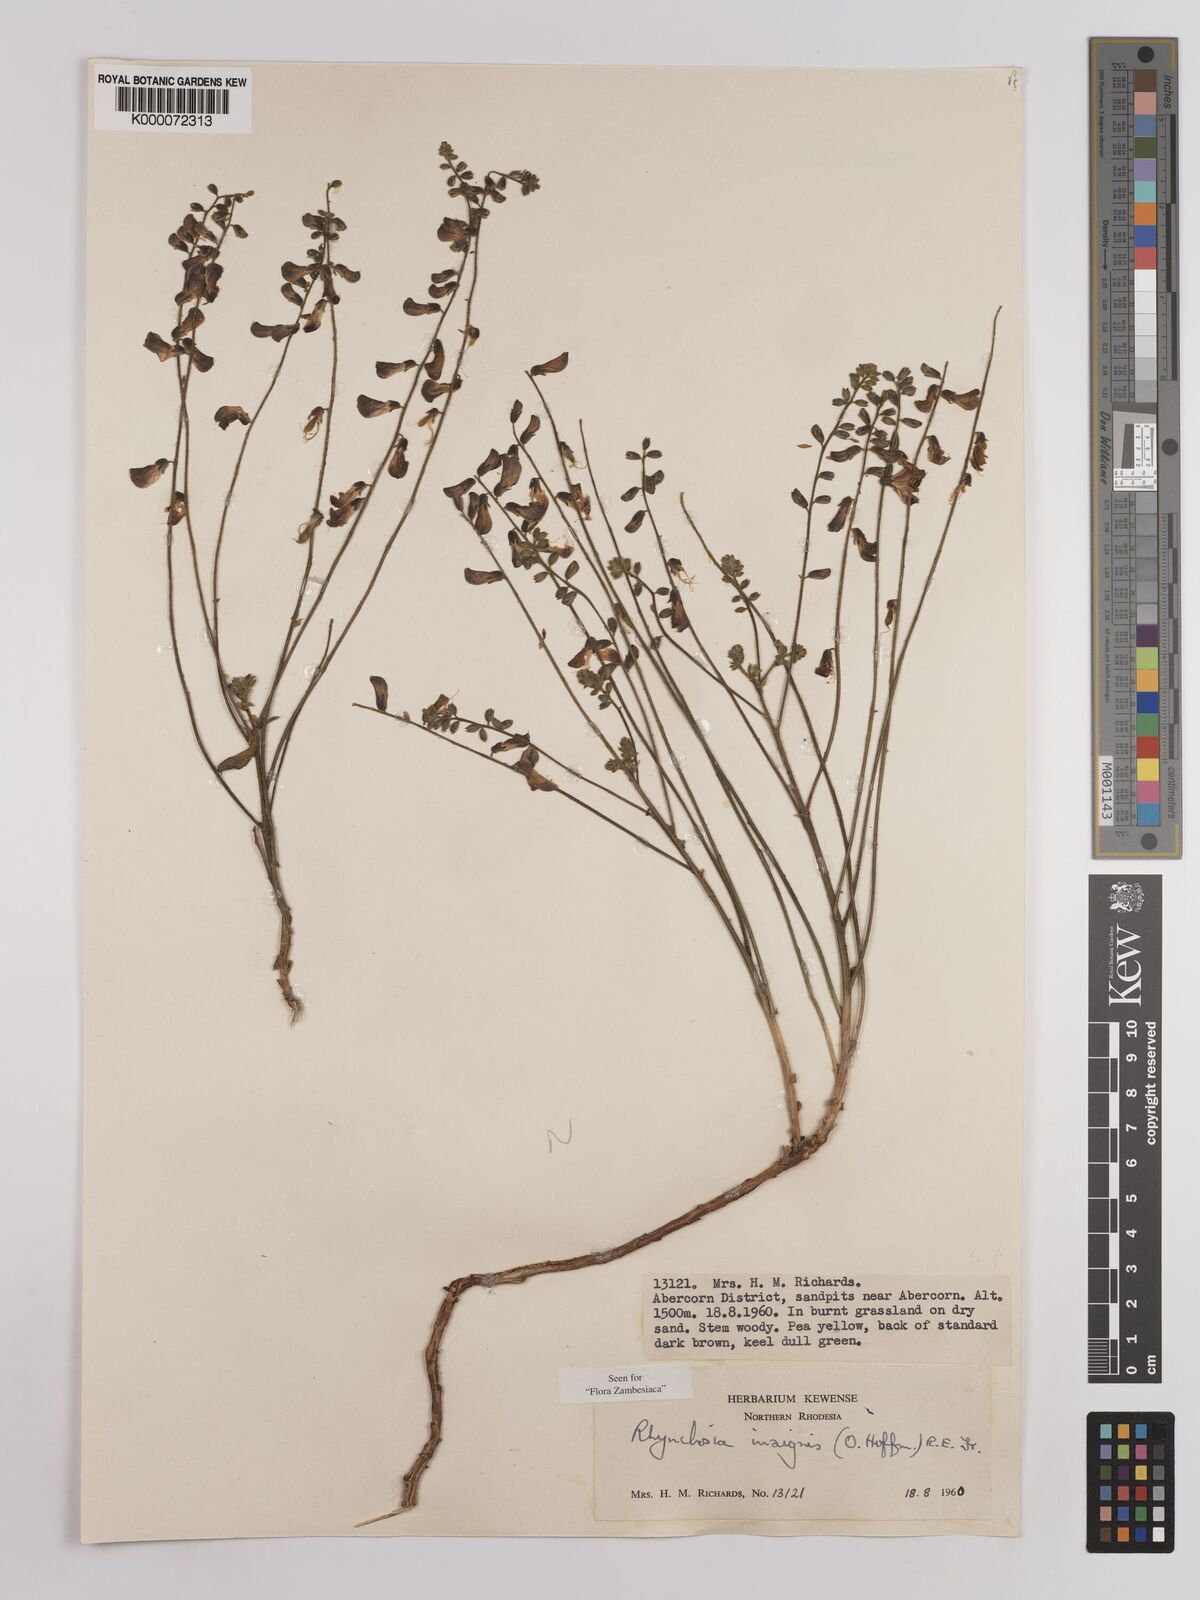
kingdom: Plantae
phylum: Tracheophyta
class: Magnoliopsida
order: Fabales
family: Fabaceae
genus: Rhynchosia
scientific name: Rhynchosia insignis
